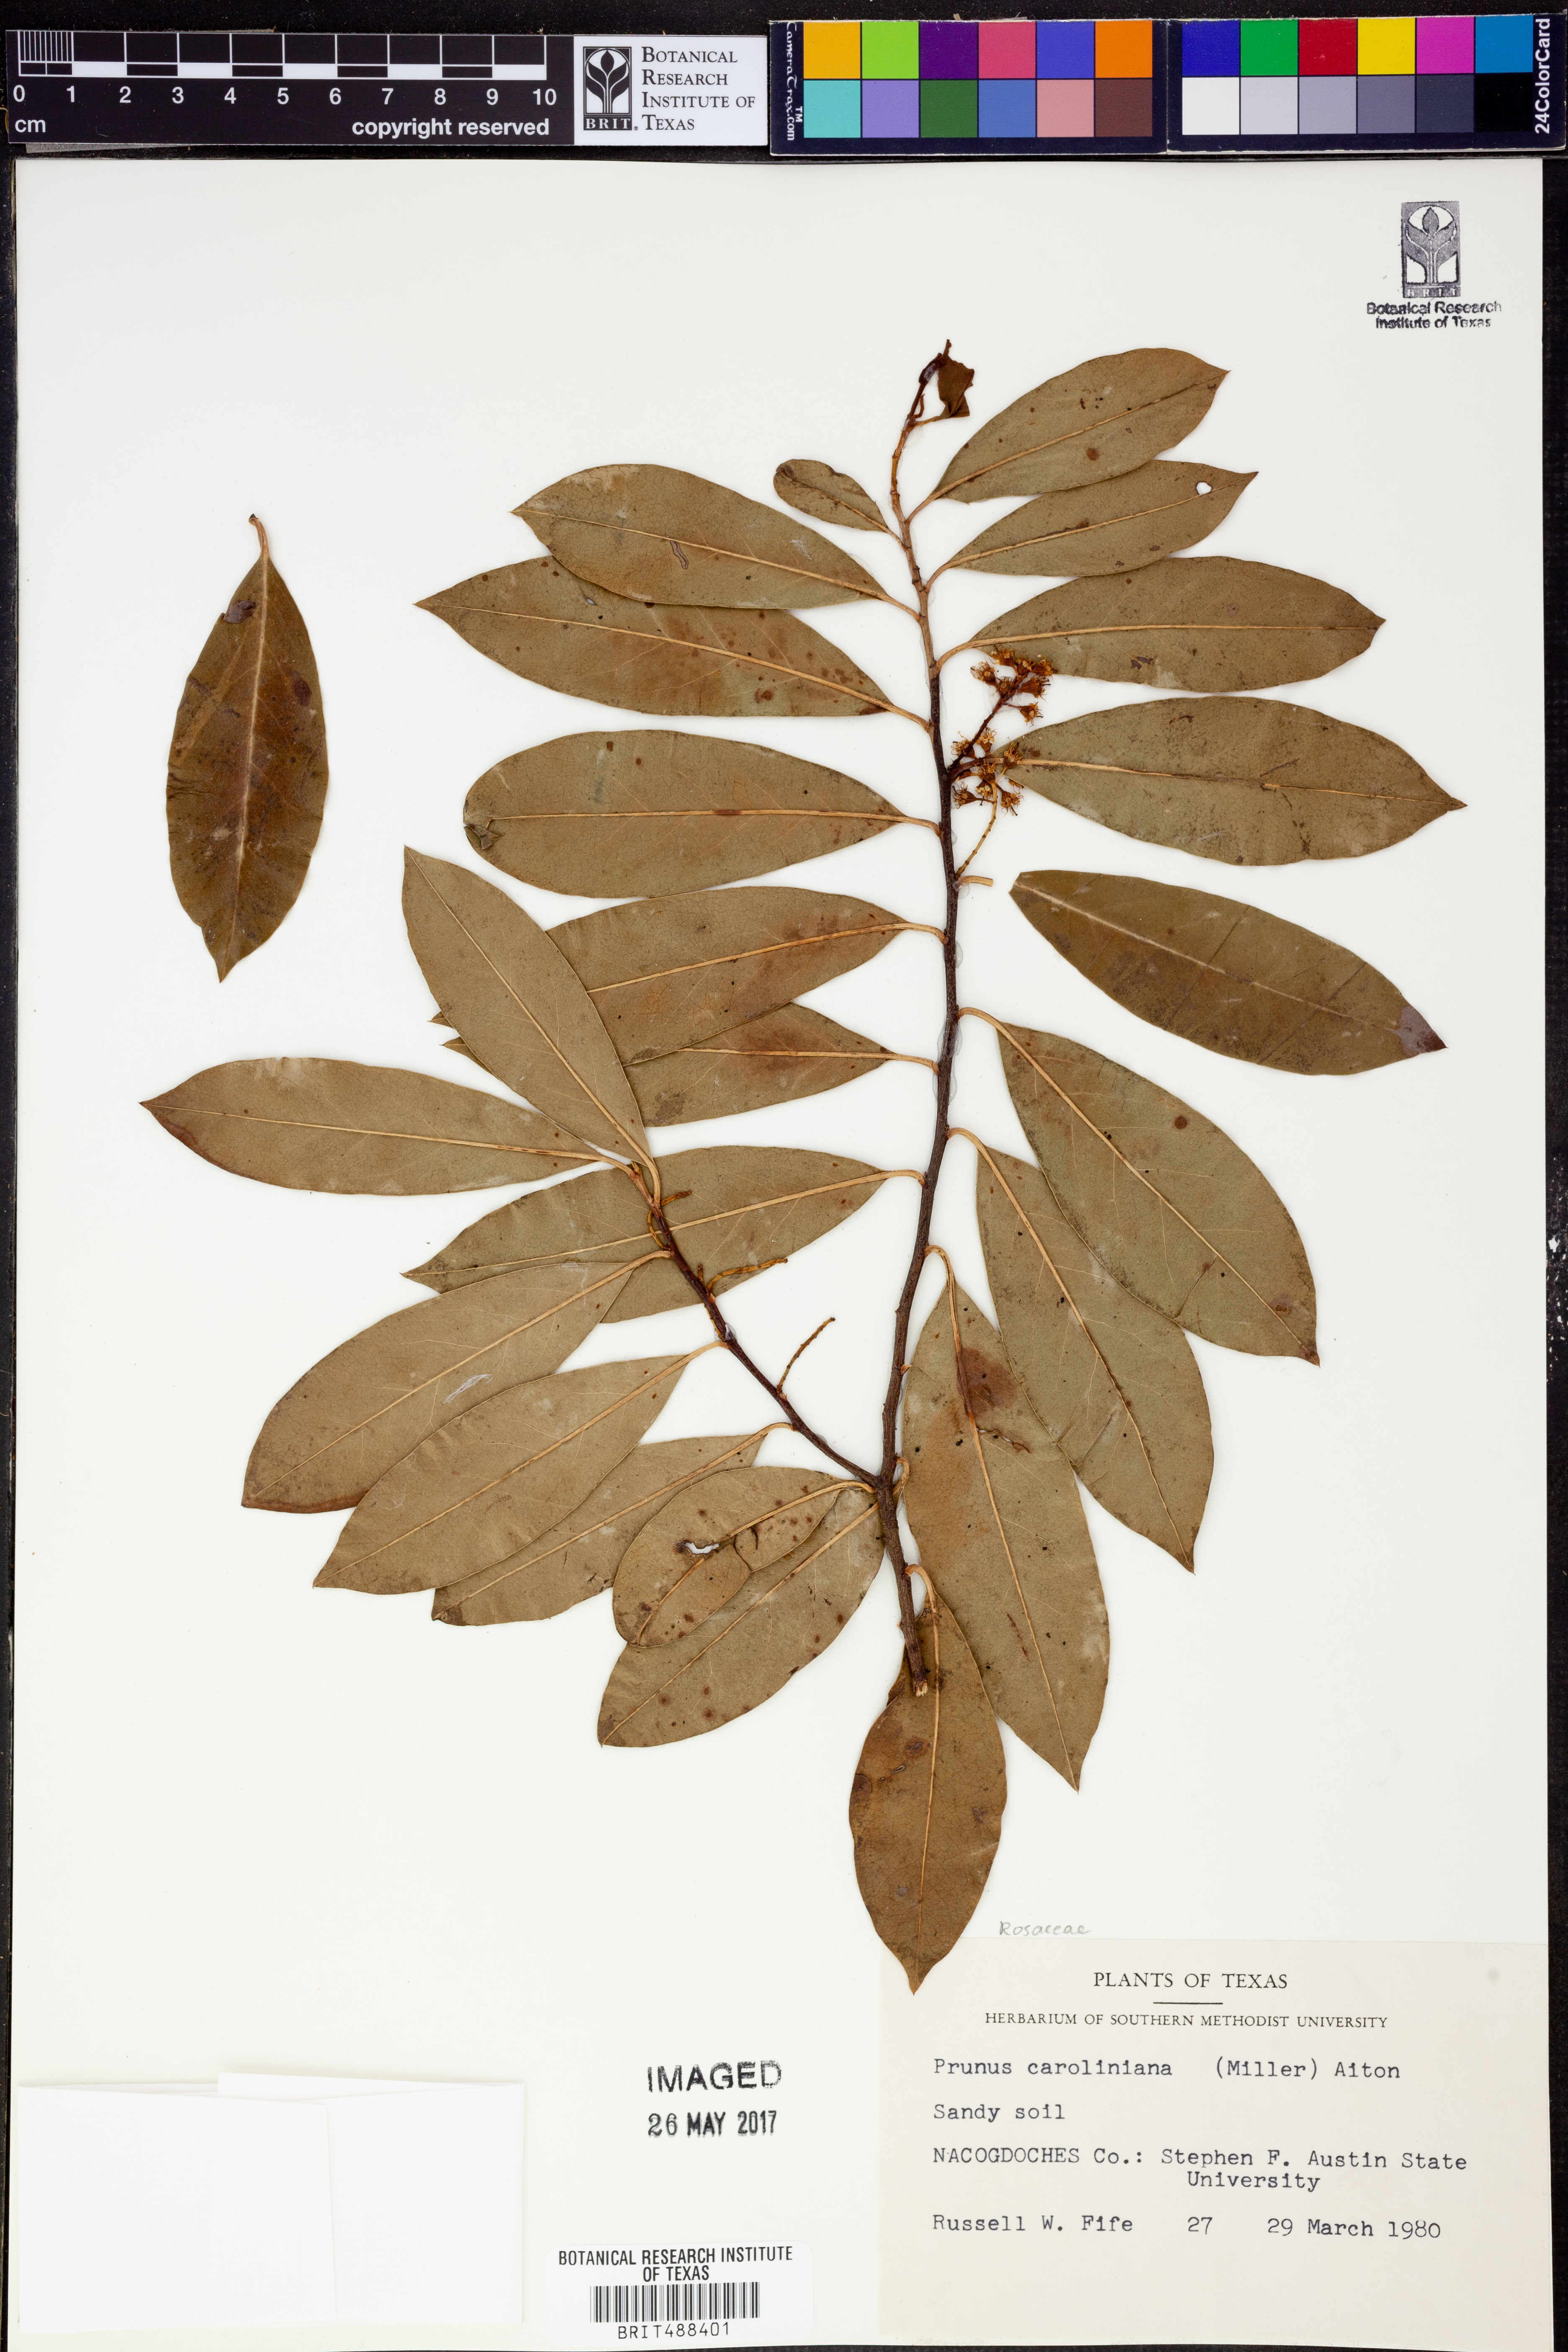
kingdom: Plantae
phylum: Tracheophyta
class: Magnoliopsida
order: Rosales
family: Rosaceae
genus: Prunus
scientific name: Prunus caroliniana
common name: Carolina laurel cherry
